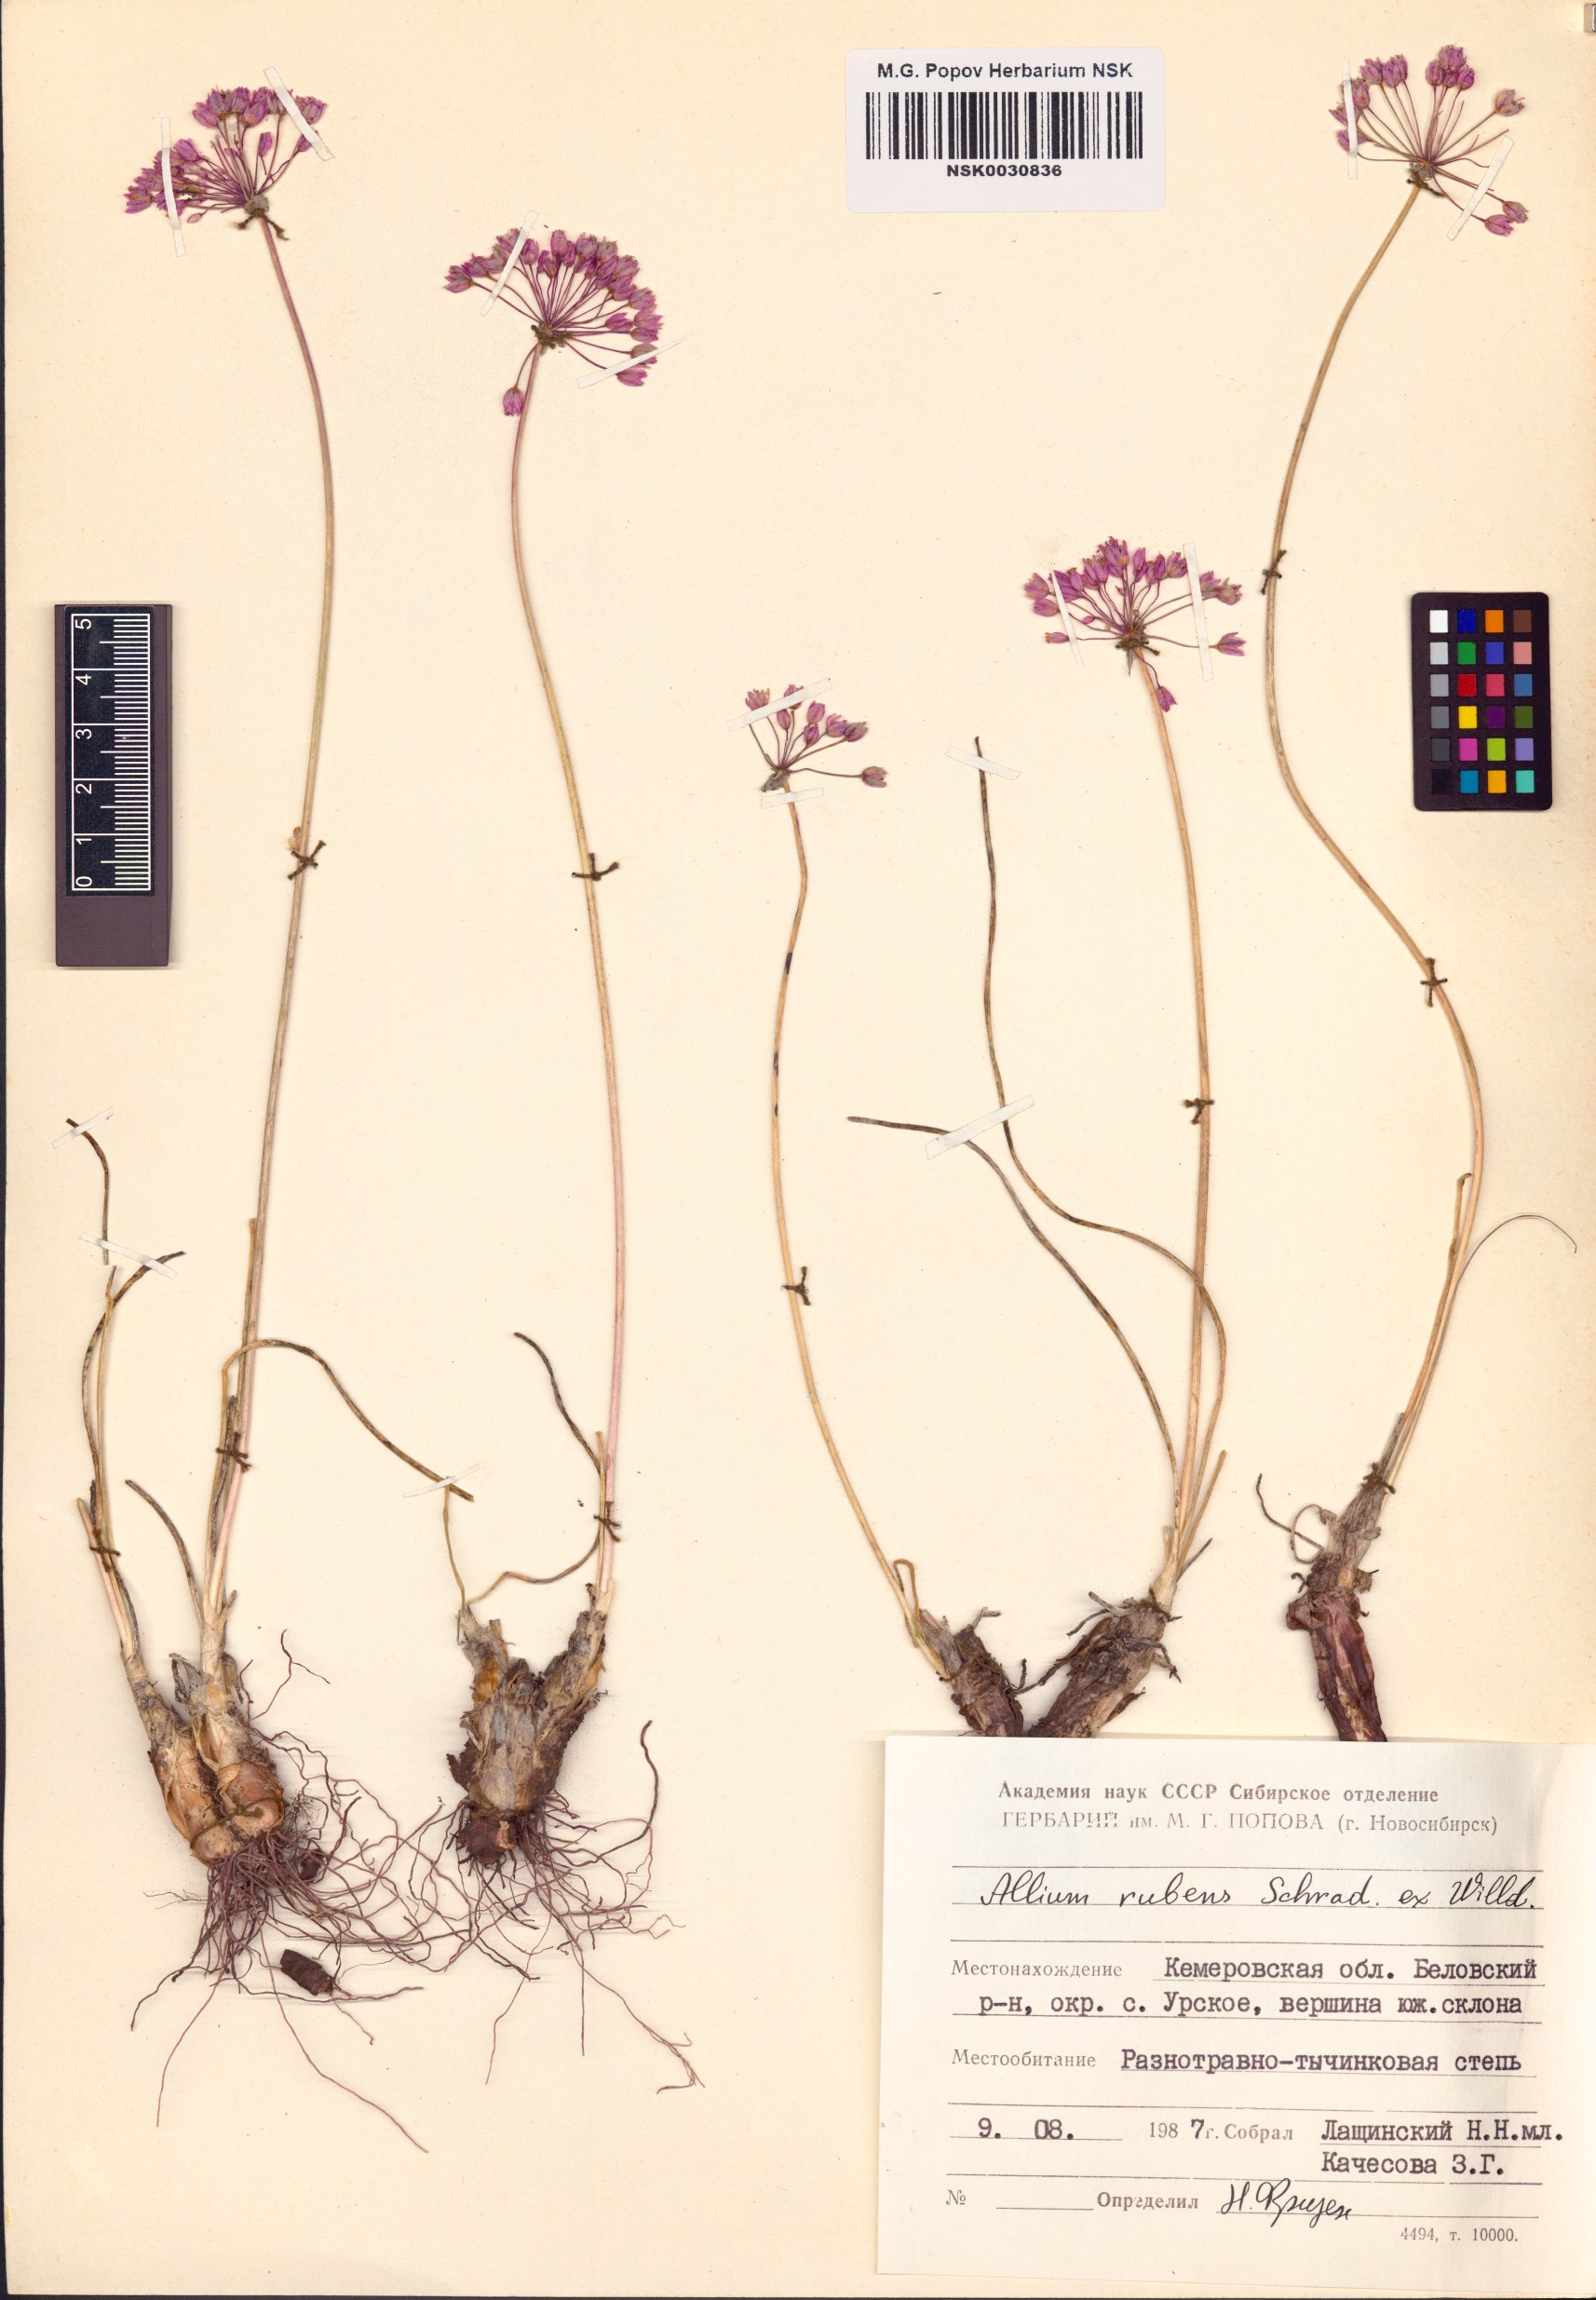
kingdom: Plantae
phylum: Tracheophyta
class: Liliopsida
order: Asparagales
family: Amaryllidaceae
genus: Allium
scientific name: Allium rubens
